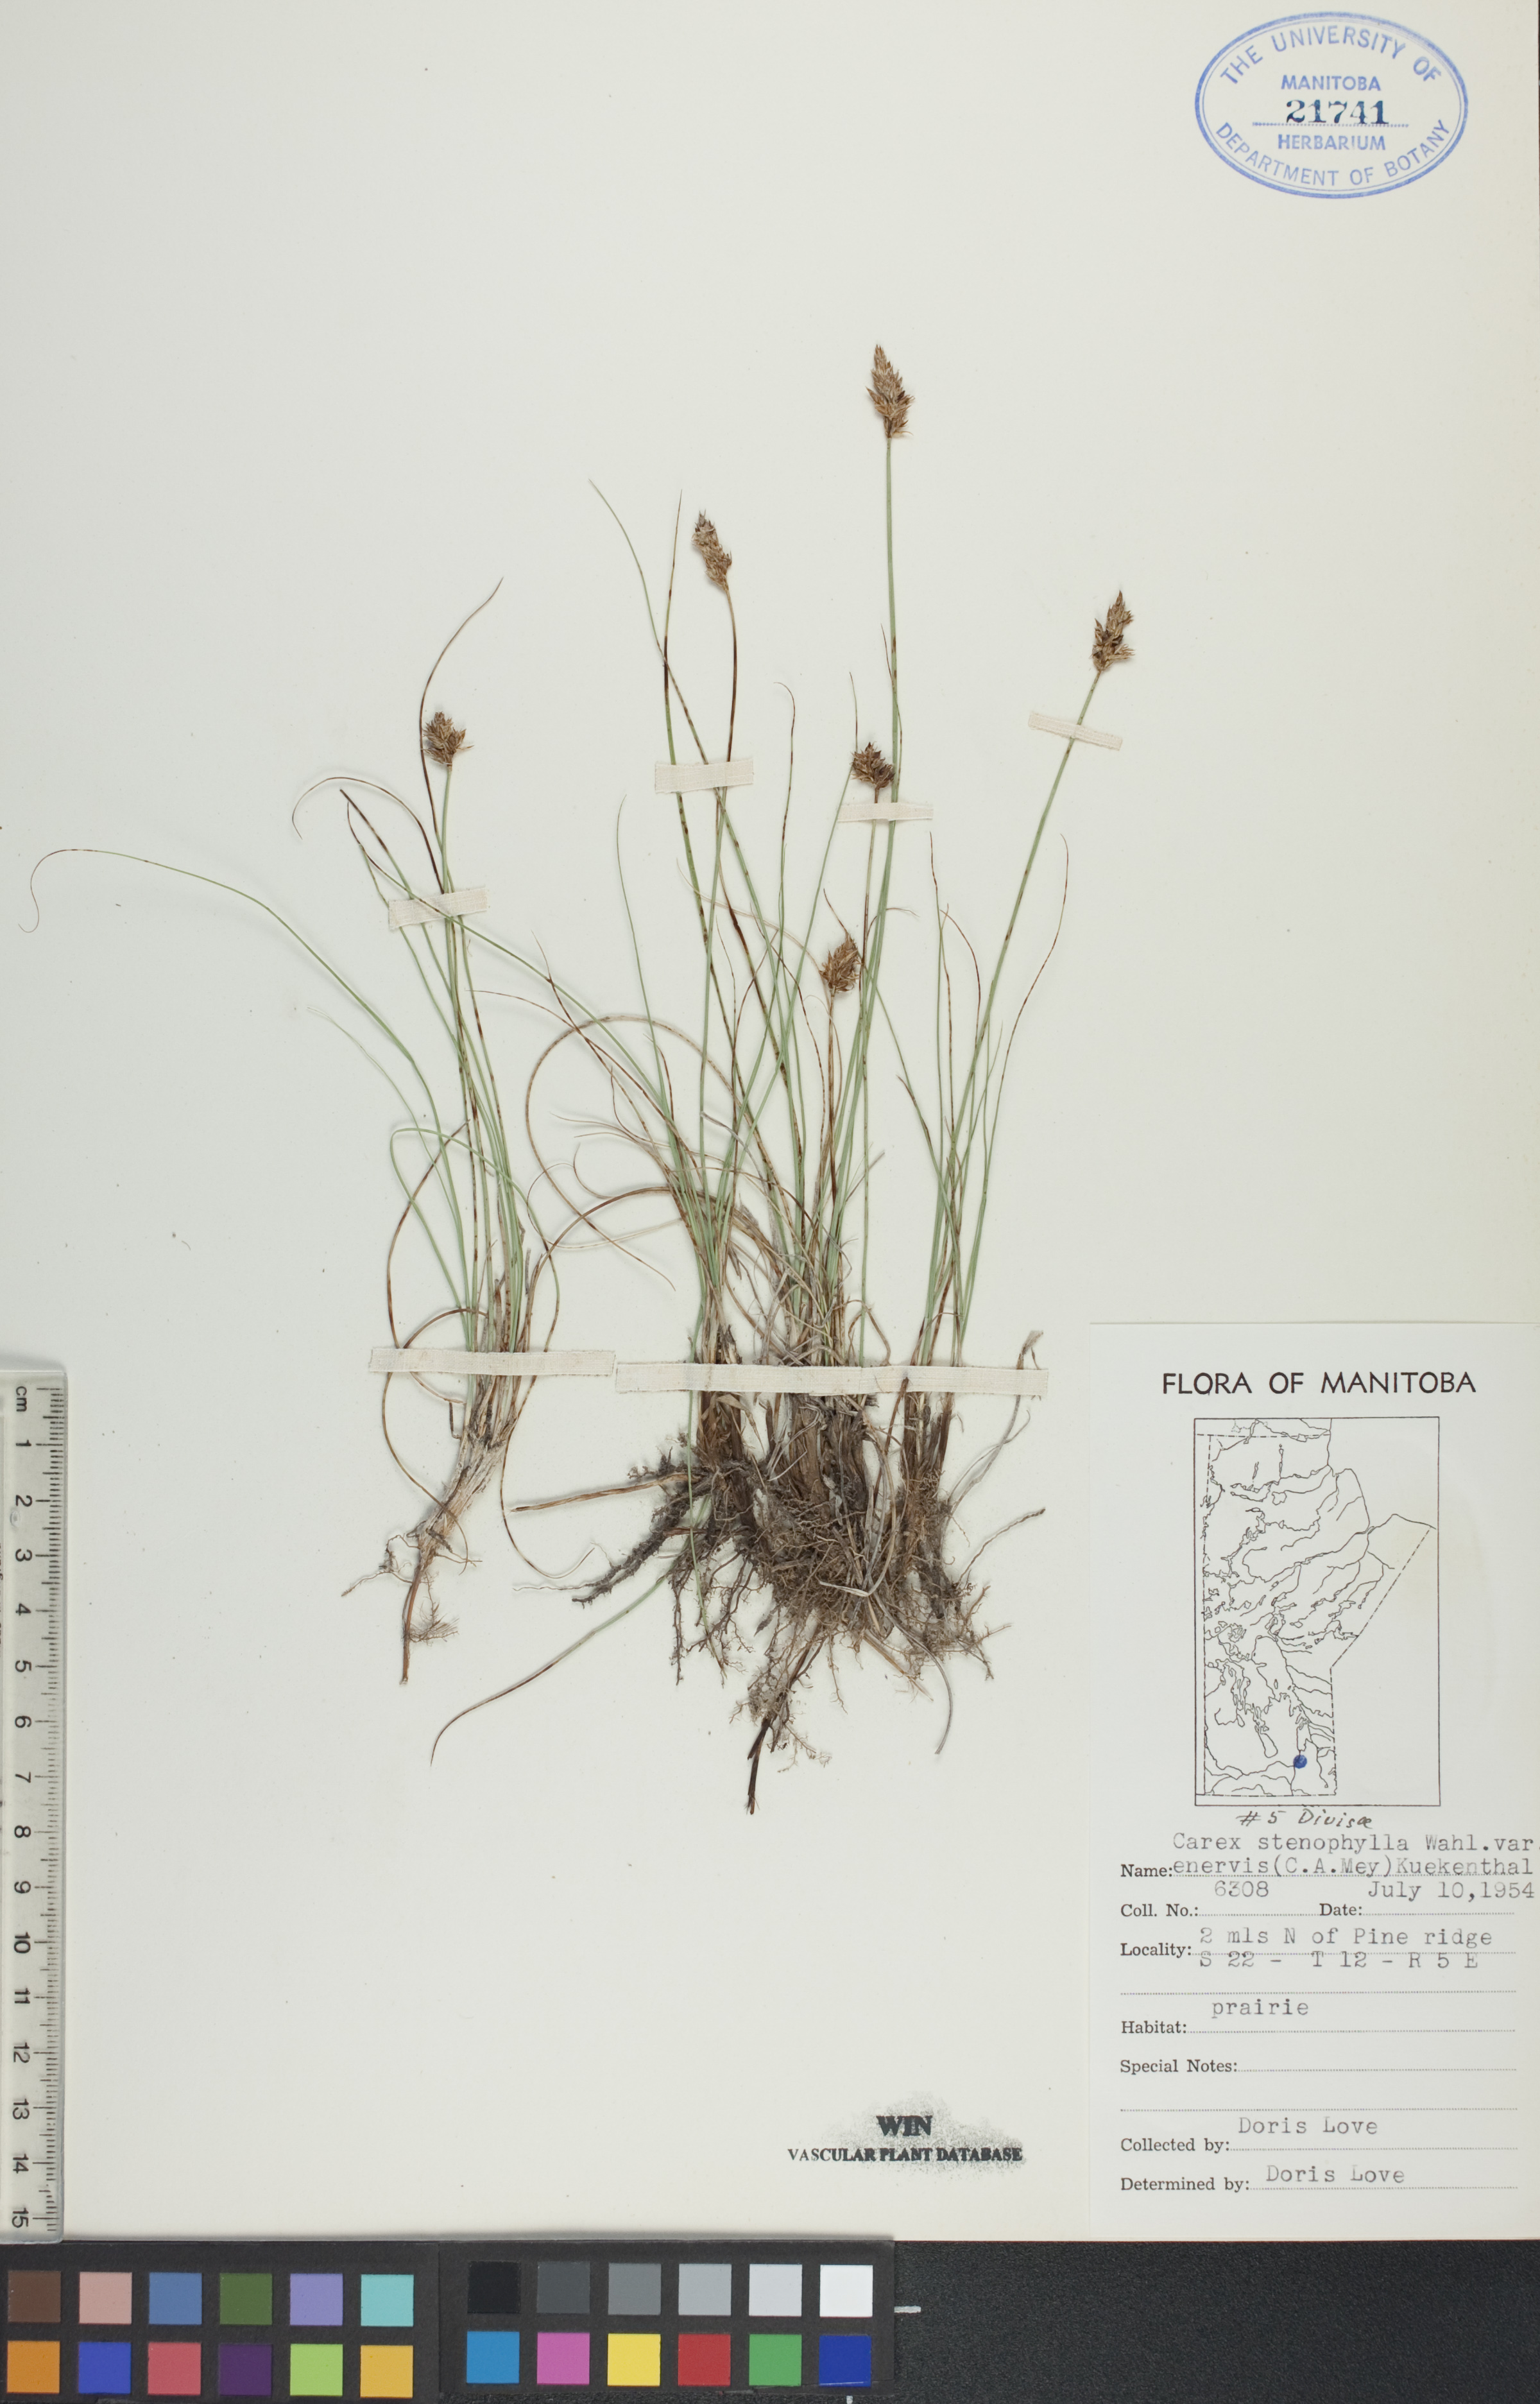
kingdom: Plantae
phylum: Tracheophyta
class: Liliopsida
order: Poales
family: Cyperaceae
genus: Carex
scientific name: Carex enervis
